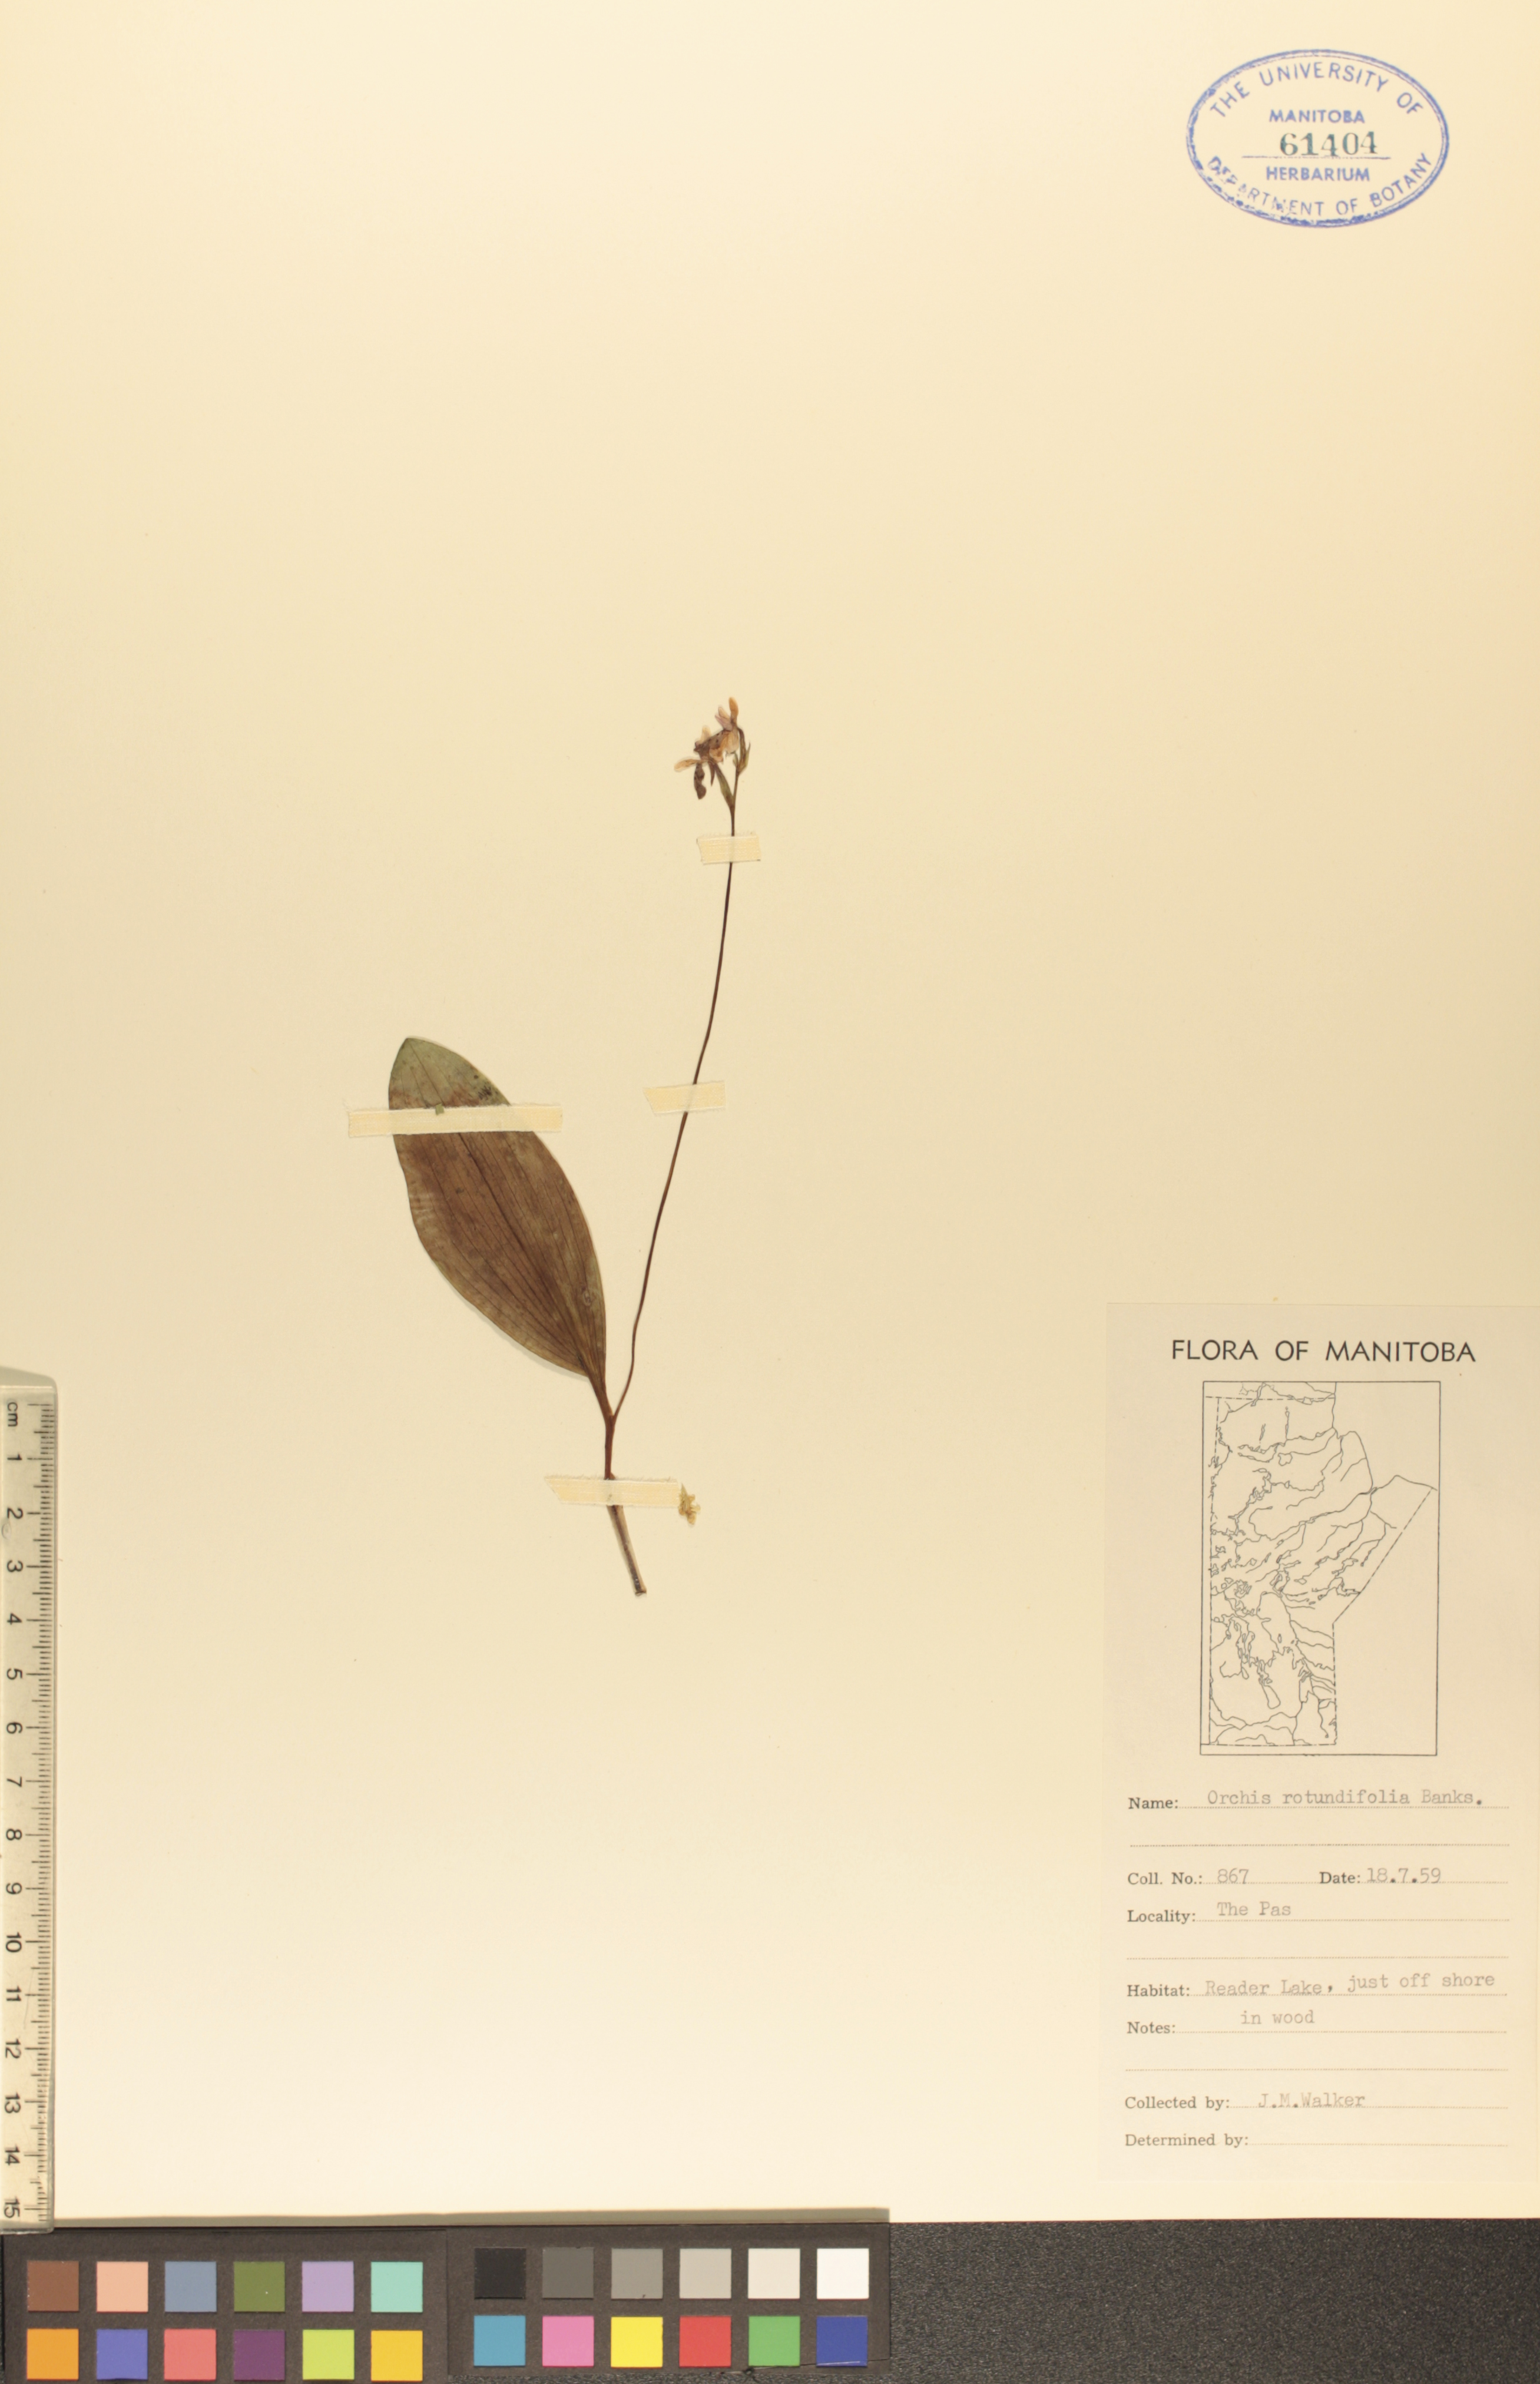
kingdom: Plantae
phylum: Tracheophyta
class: Liliopsida
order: Asparagales
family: Orchidaceae
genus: Galearis
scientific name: Galearis rotundifolia
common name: One-leaved orchis
